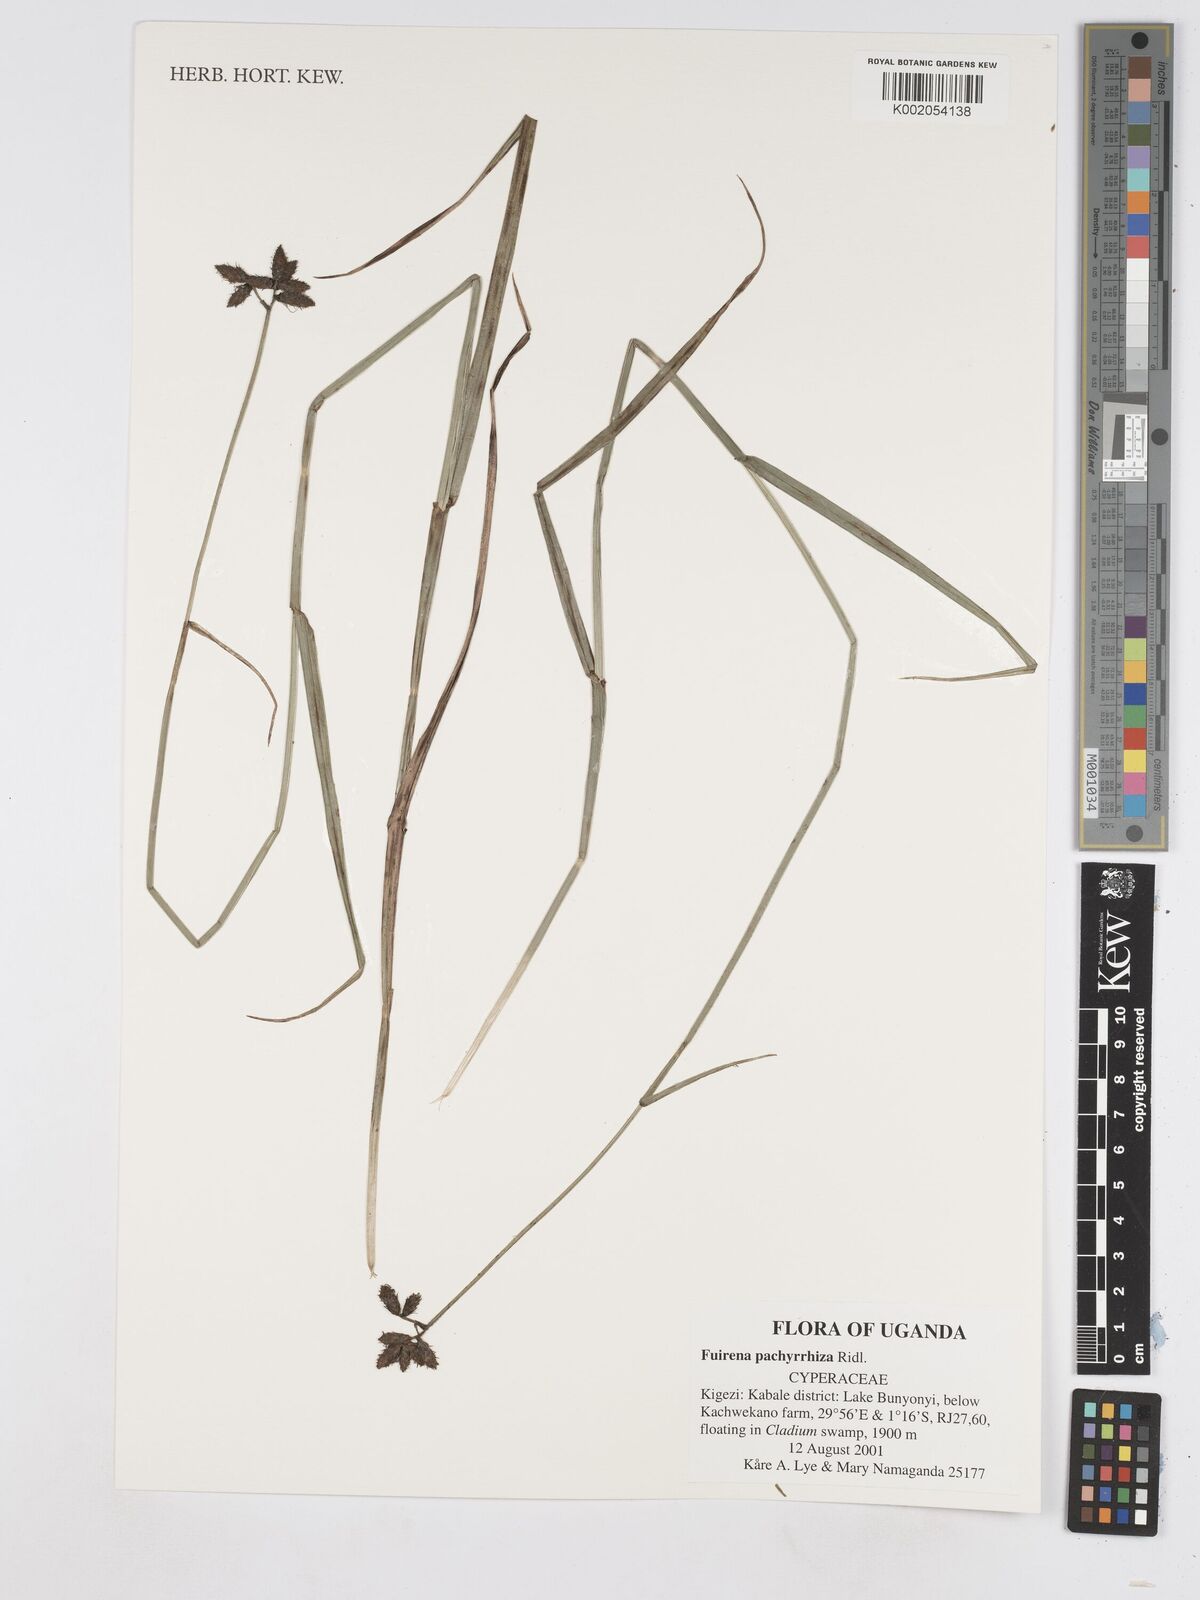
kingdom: Plantae
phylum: Tracheophyta
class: Liliopsida
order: Poales
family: Cyperaceae
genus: Fuirena
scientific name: Fuirena pachyrrhiza
